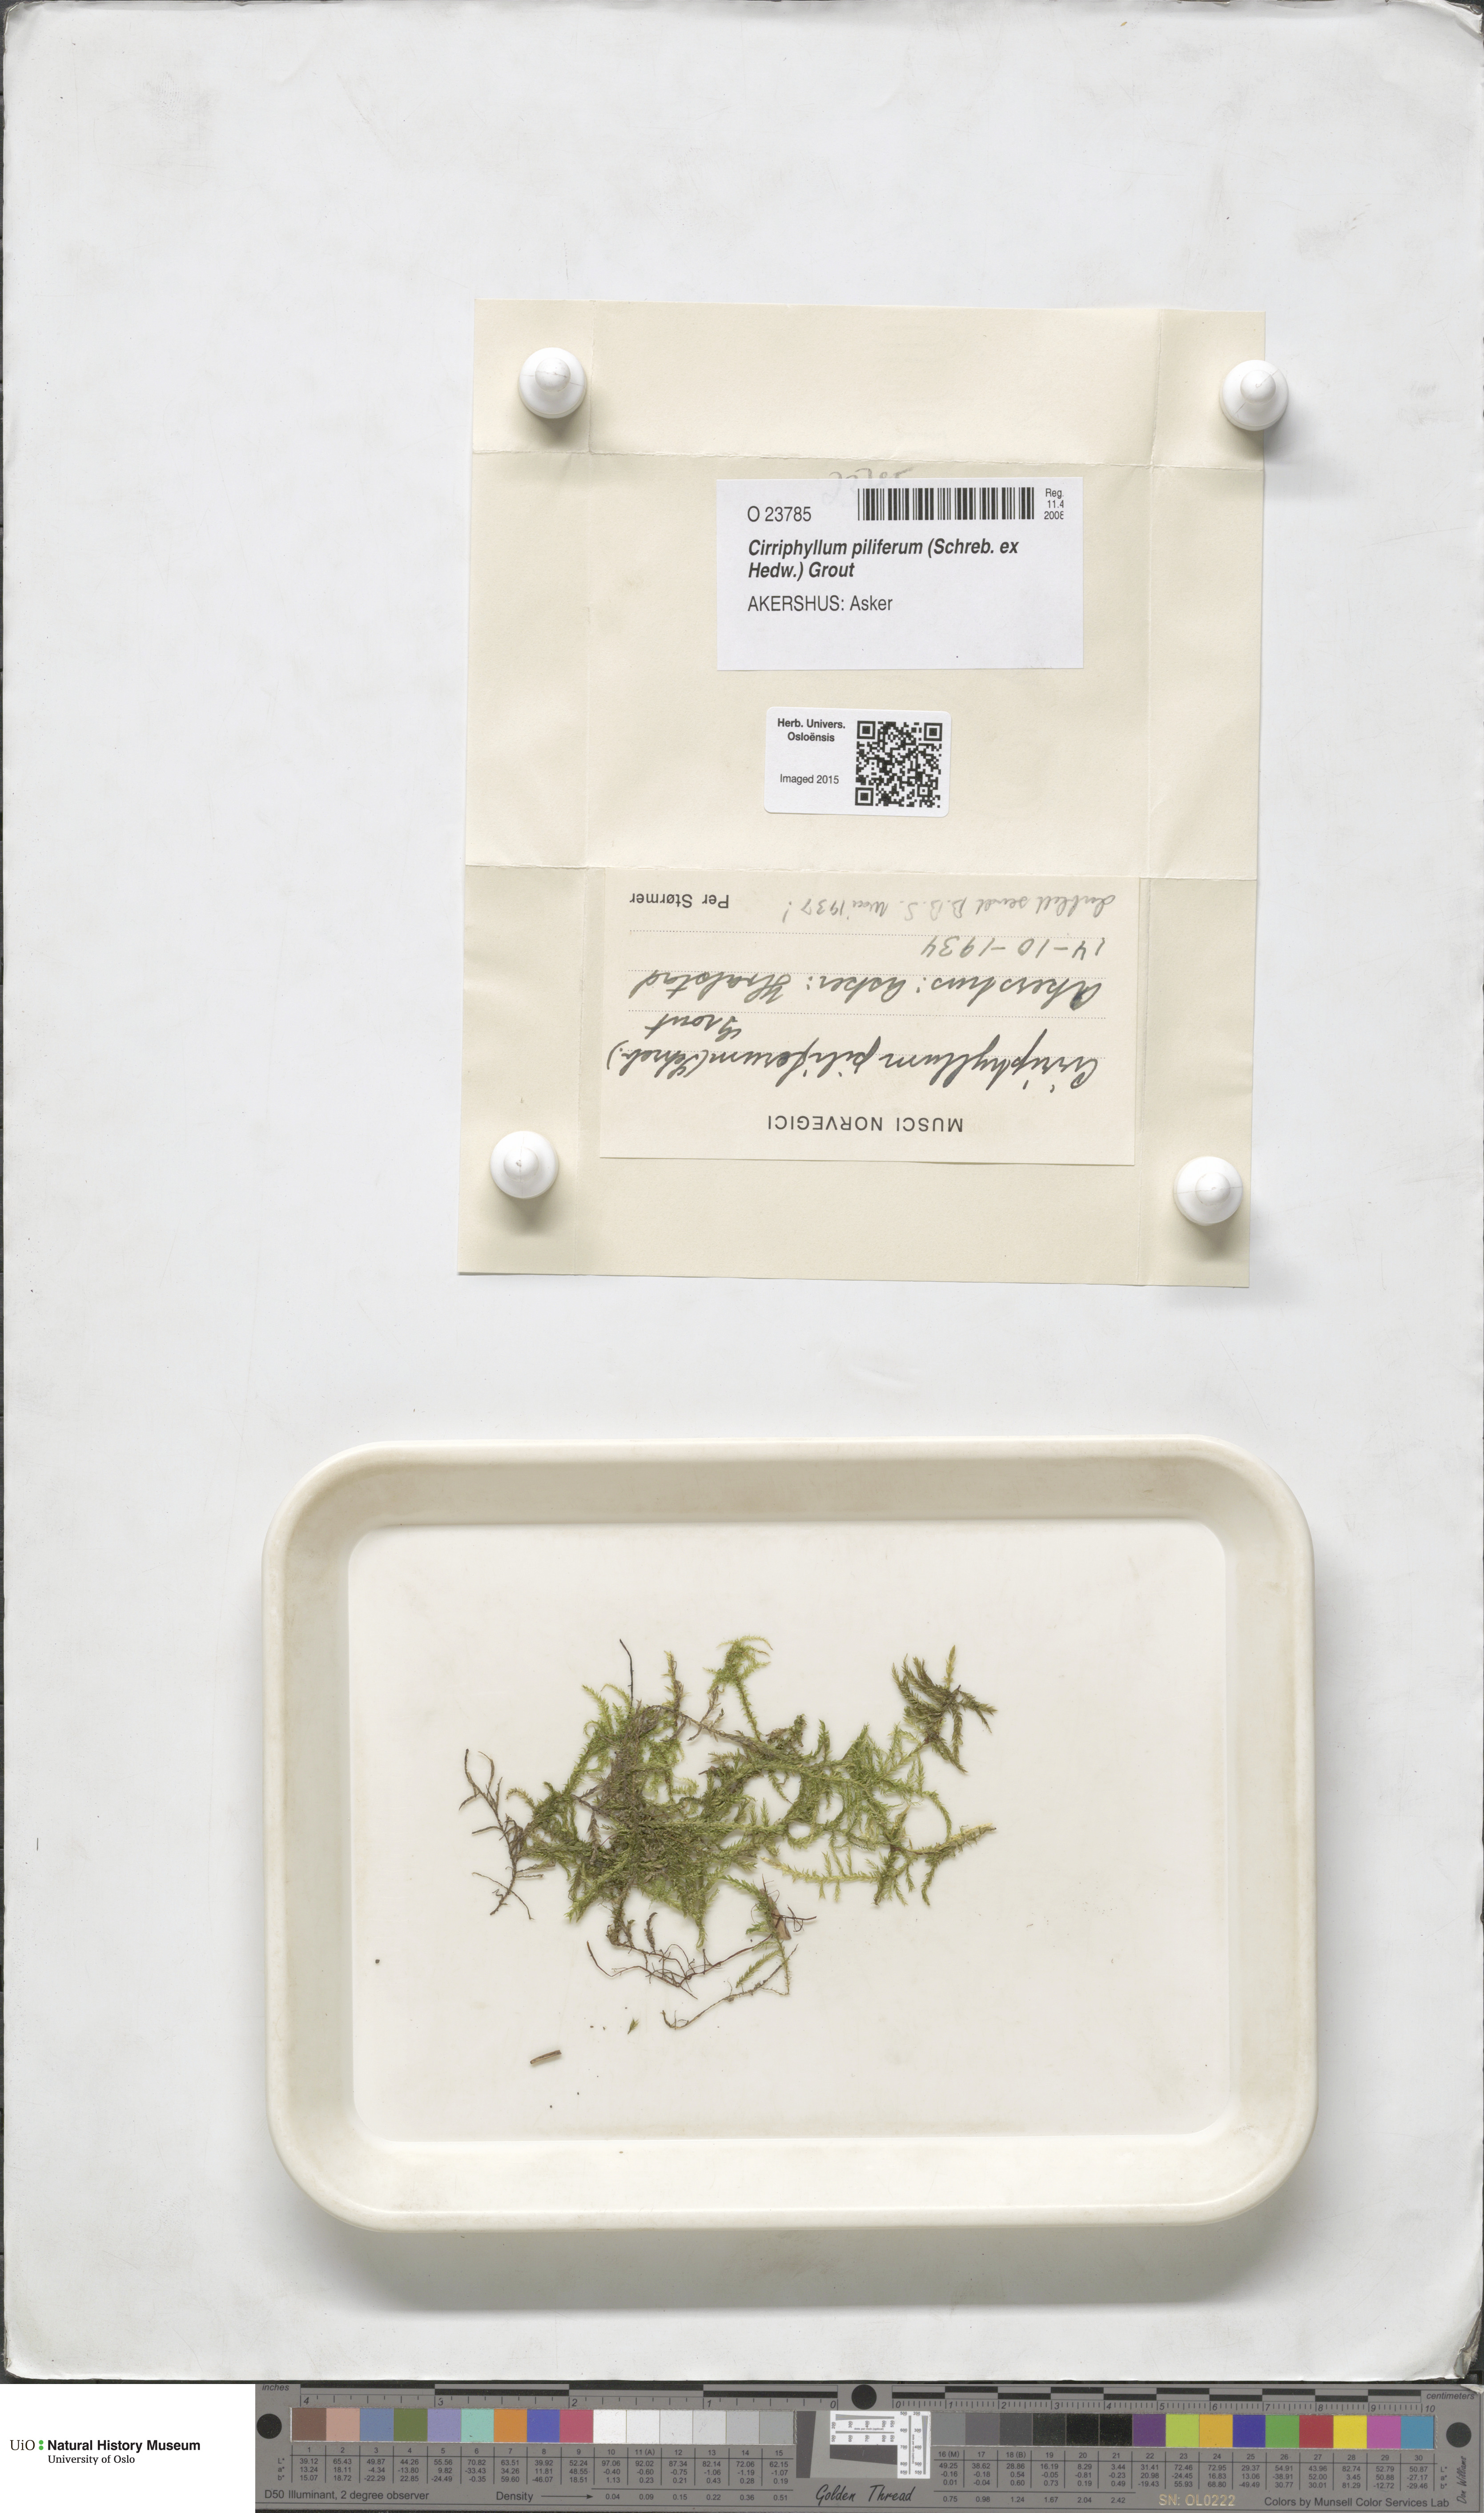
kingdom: Plantae
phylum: Bryophyta
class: Bryopsida
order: Hypnales
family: Brachytheciaceae
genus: Cirriphyllum
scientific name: Cirriphyllum piliferum
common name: Hair-pointed moss
